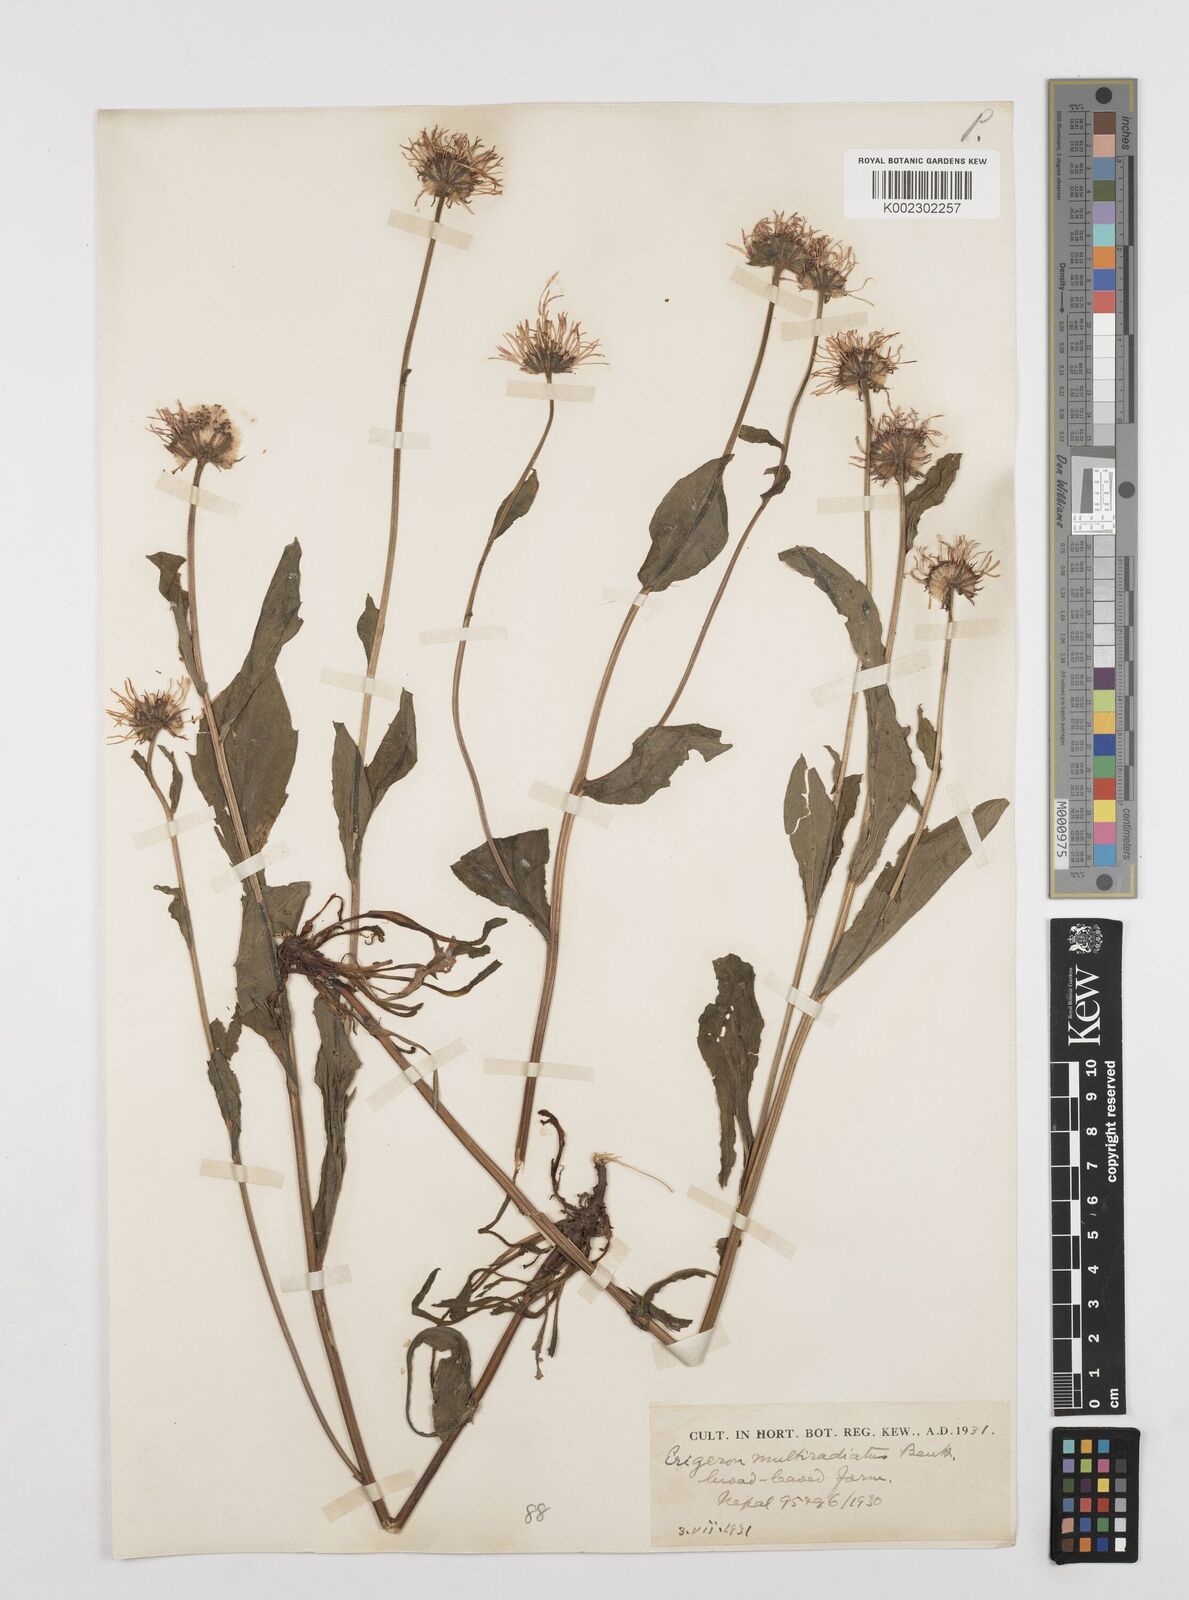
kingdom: Plantae
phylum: Tracheophyta
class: Magnoliopsida
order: Asterales
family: Asteraceae
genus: Erigeron
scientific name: Erigeron multiradiatus
